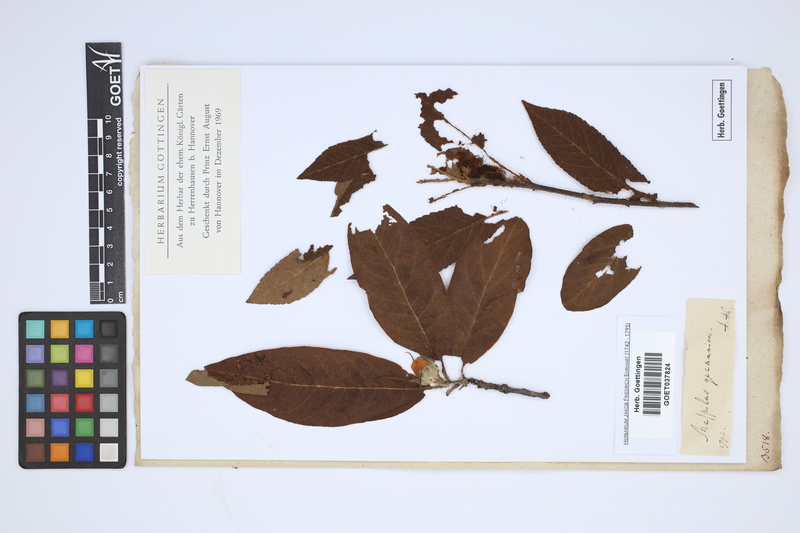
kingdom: Plantae
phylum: Tracheophyta
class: Magnoliopsida
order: Rosales
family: Rosaceae
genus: Mespilus
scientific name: Mespilus germanica
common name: Medlar
